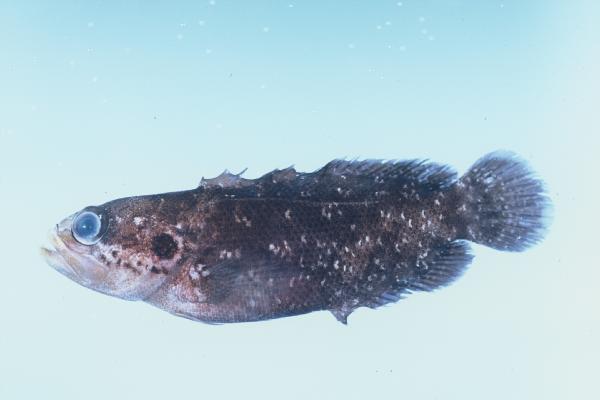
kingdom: Animalia
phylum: Chordata
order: Perciformes
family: Serranidae
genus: Pseudogramma
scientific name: Pseudogramma polyacantha
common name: Bold-spot soapfish
